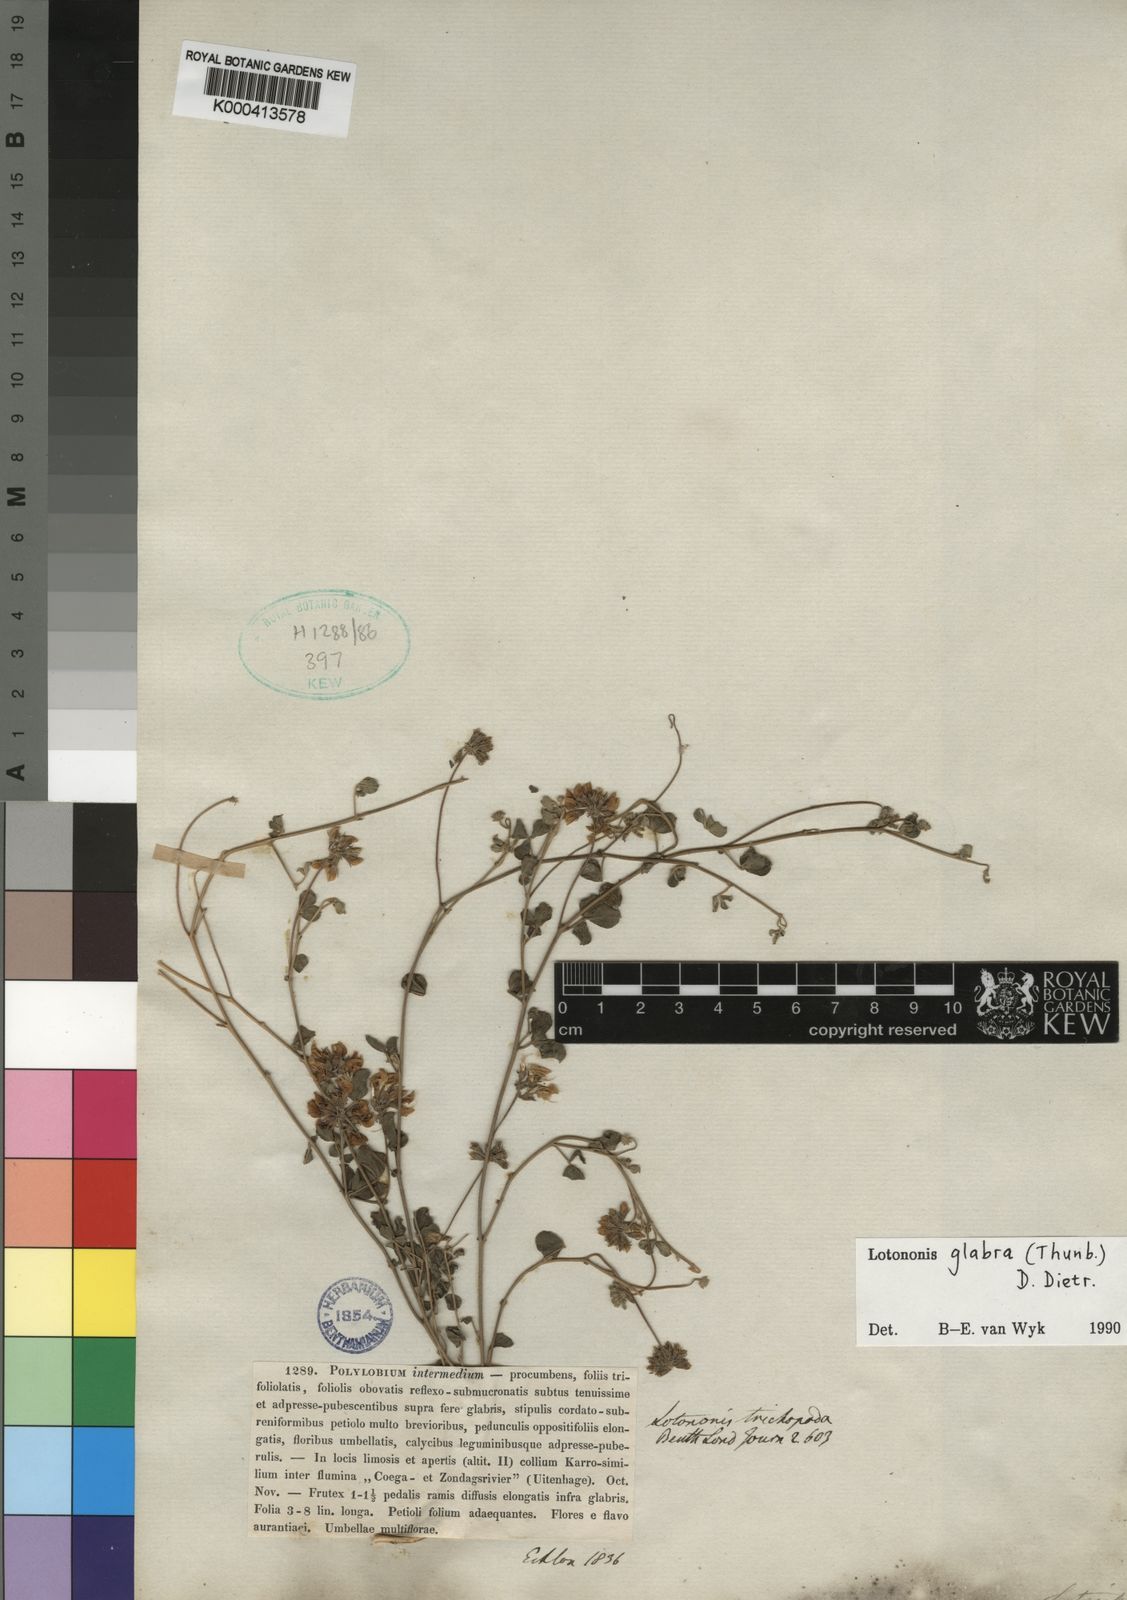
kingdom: Plantae
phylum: Tracheophyta
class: Magnoliopsida
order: Fabales
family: Fabaceae
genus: Lotononis
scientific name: Lotononis glabra
